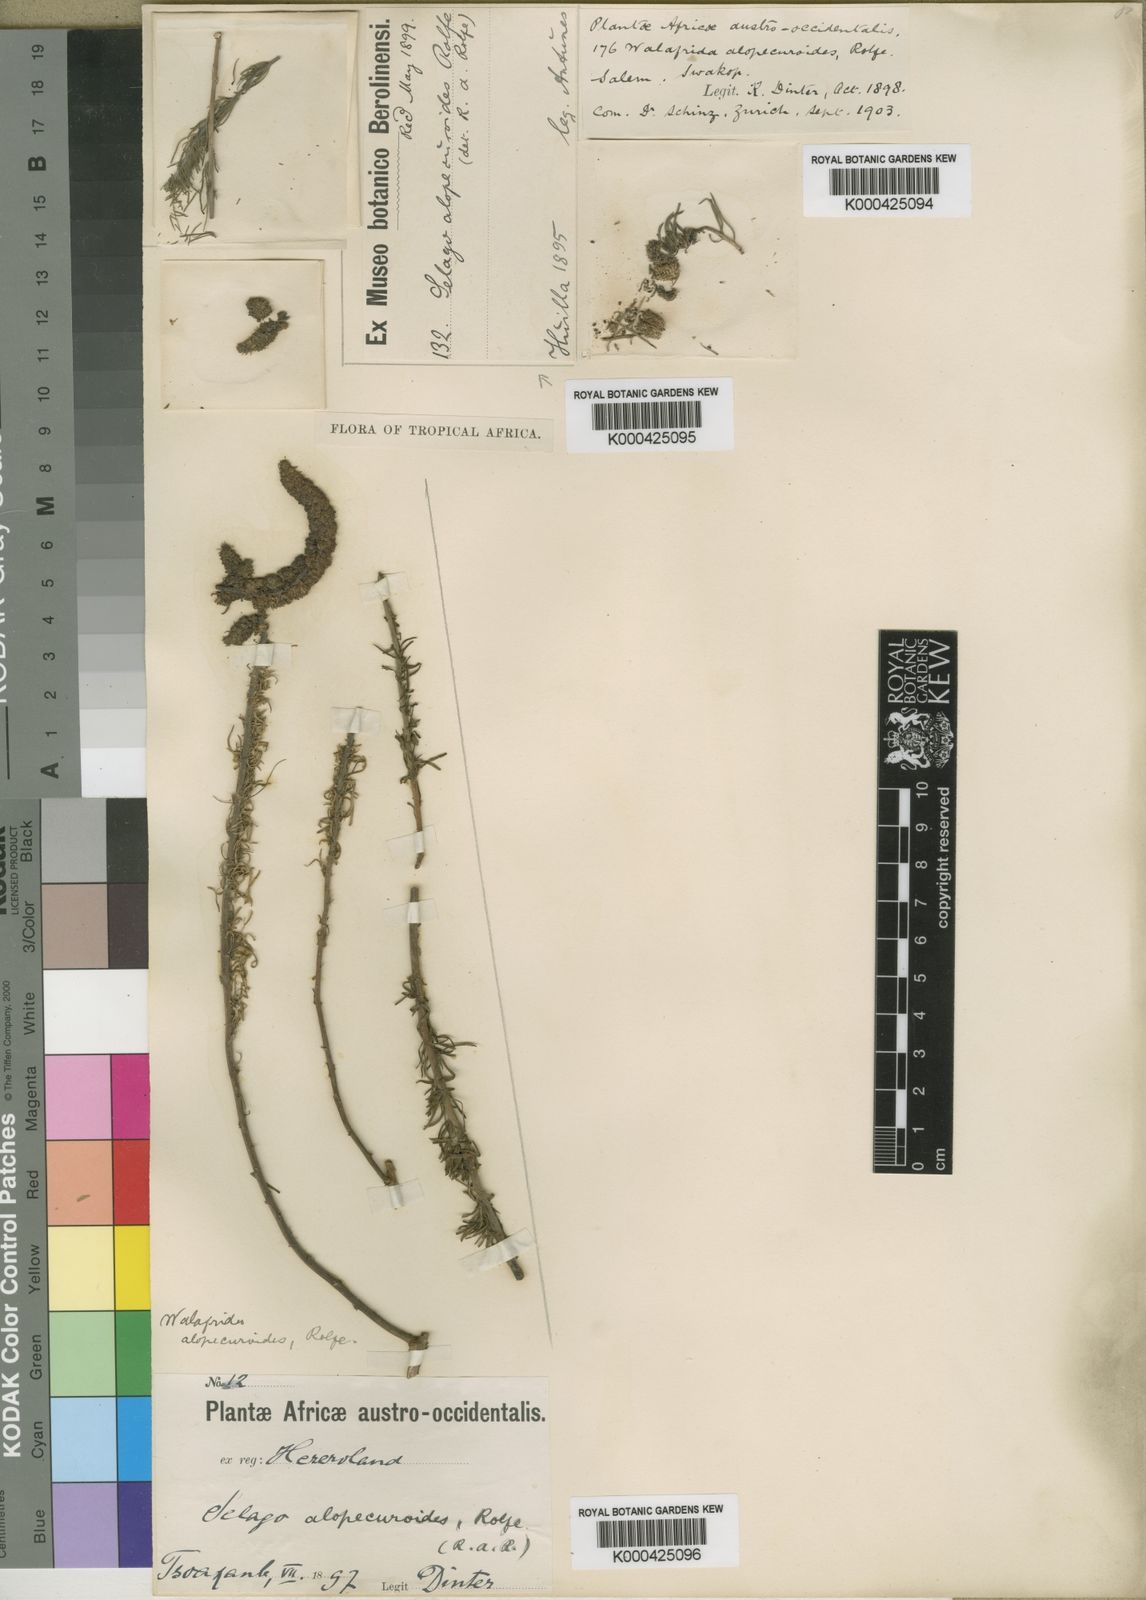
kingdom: Plantae
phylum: Tracheophyta
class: Magnoliopsida
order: Lamiales
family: Scrophulariaceae
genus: Selago
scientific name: Selago alopecuroides
